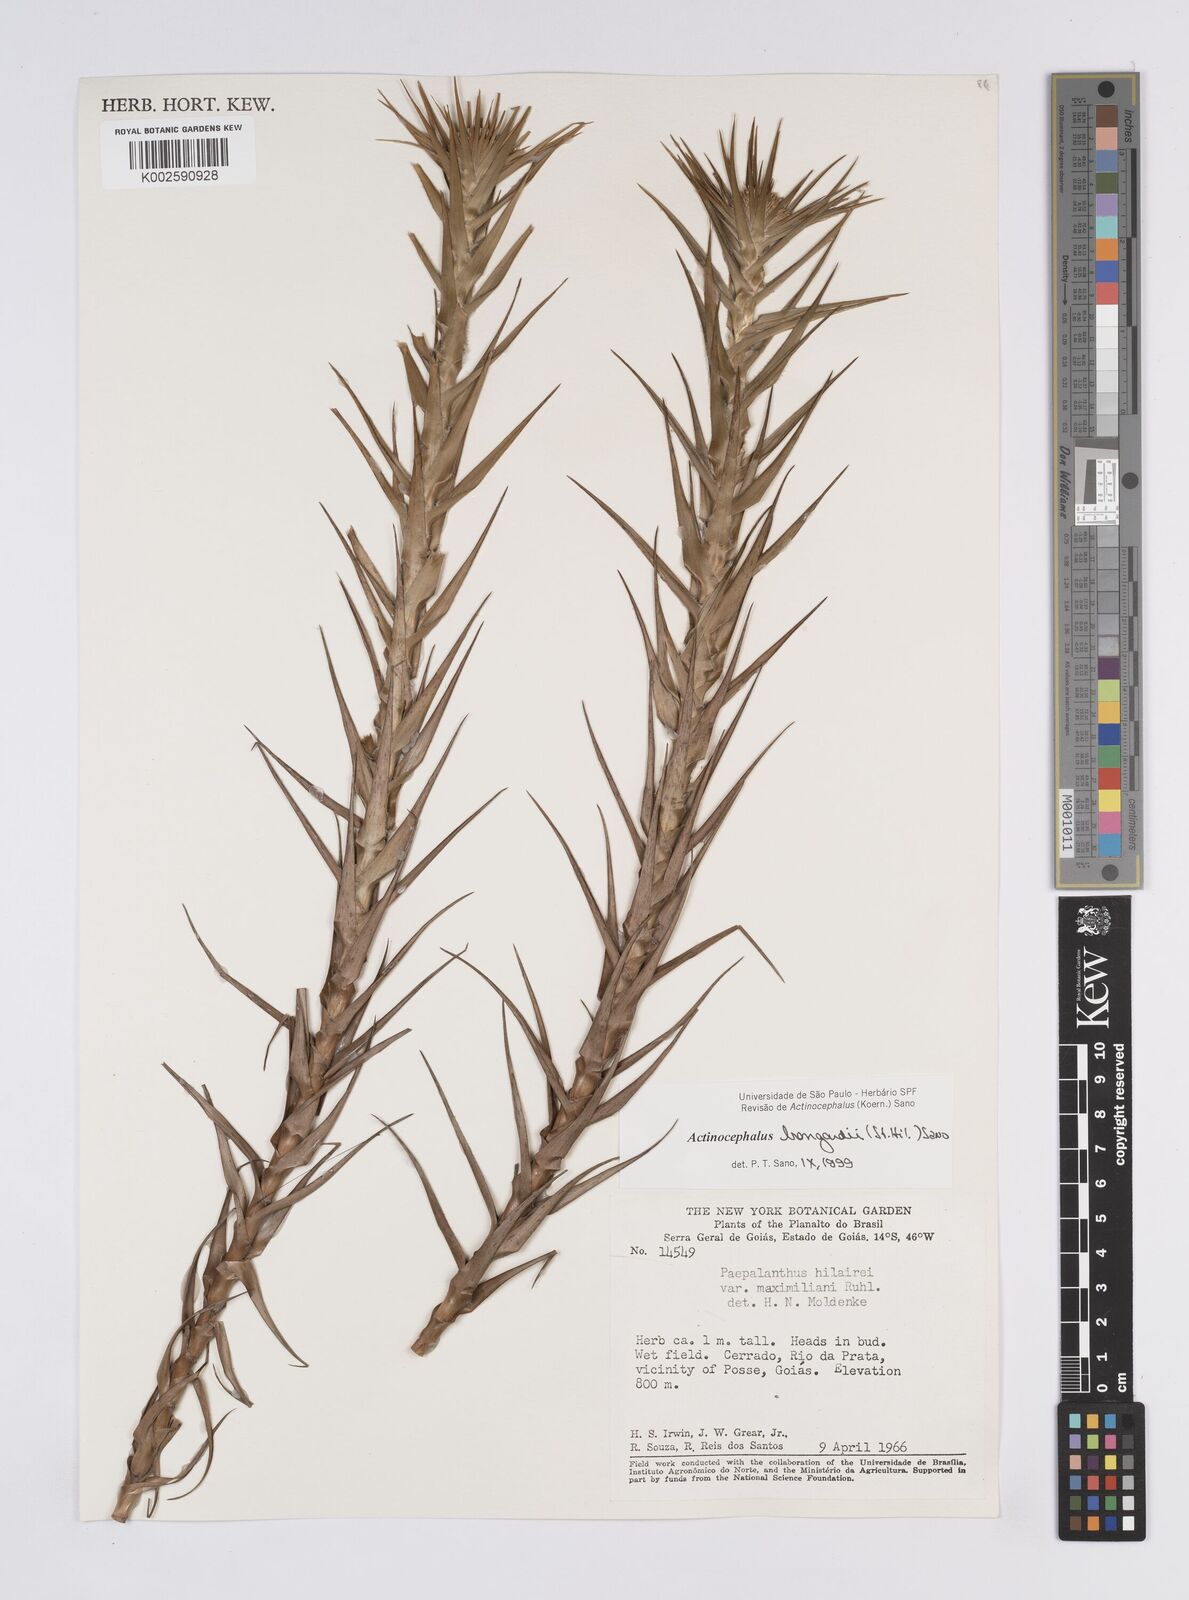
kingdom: Plantae
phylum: Tracheophyta
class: Liliopsida
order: Poales
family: Eriocaulaceae
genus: Paepalanthus
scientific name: Paepalanthus hilairei
